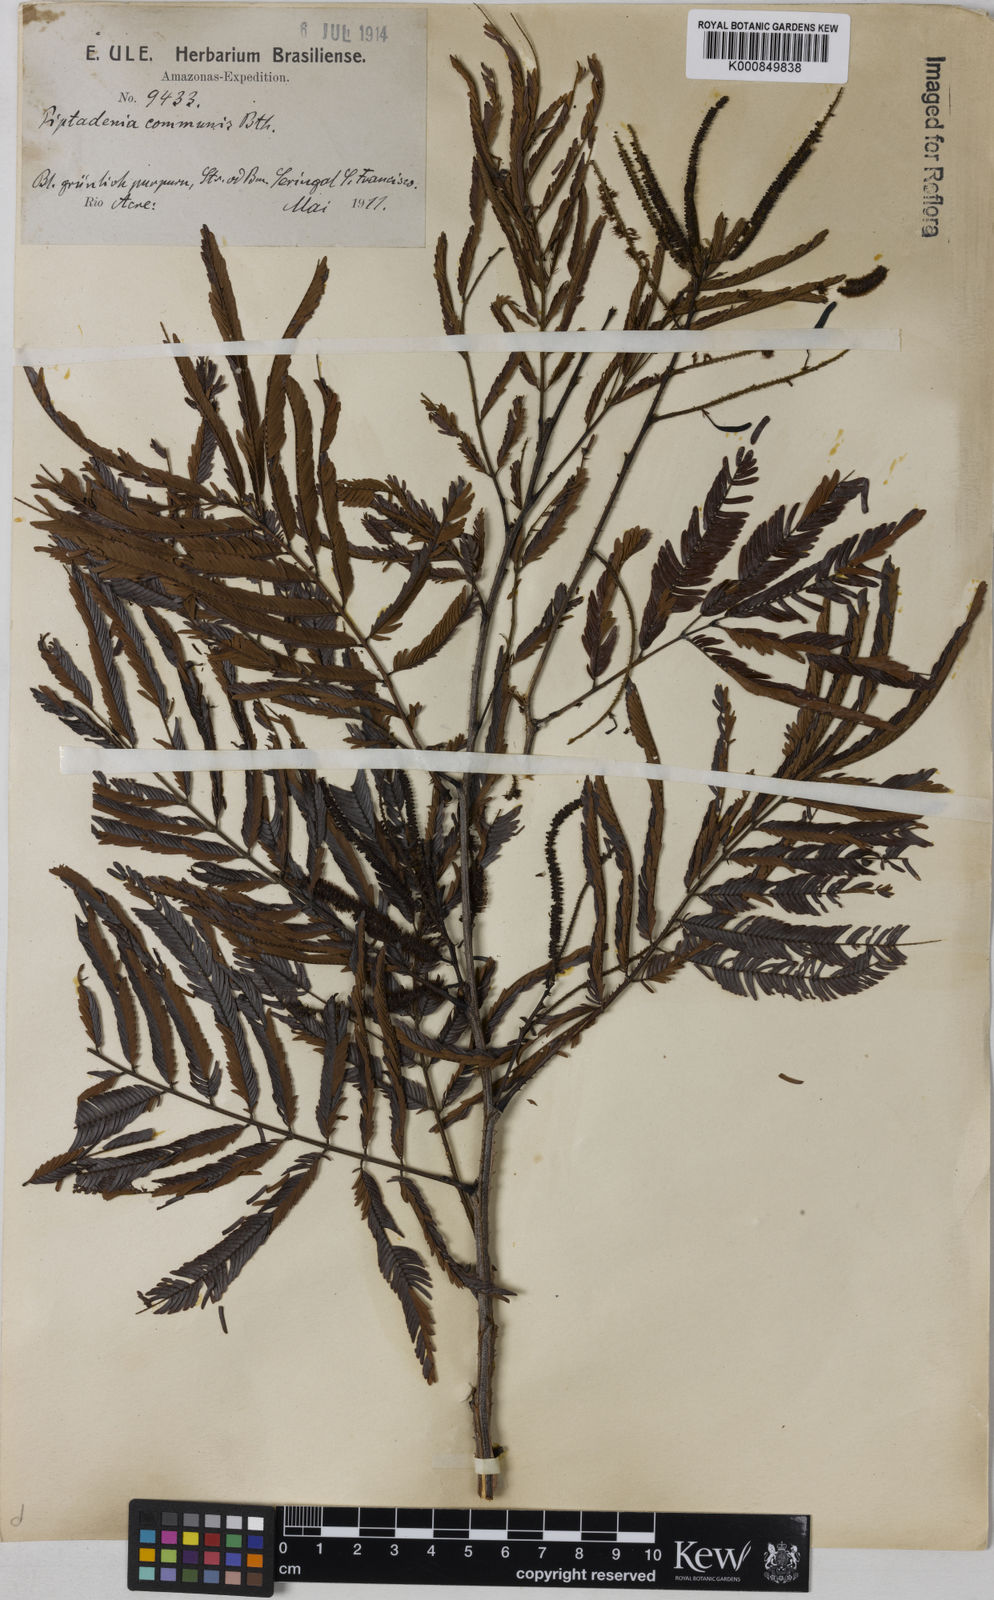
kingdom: Plantae
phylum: Tracheophyta
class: Magnoliopsida
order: Fabales
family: Fabaceae
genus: Piptadenia
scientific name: Piptadenia gonoacantha
